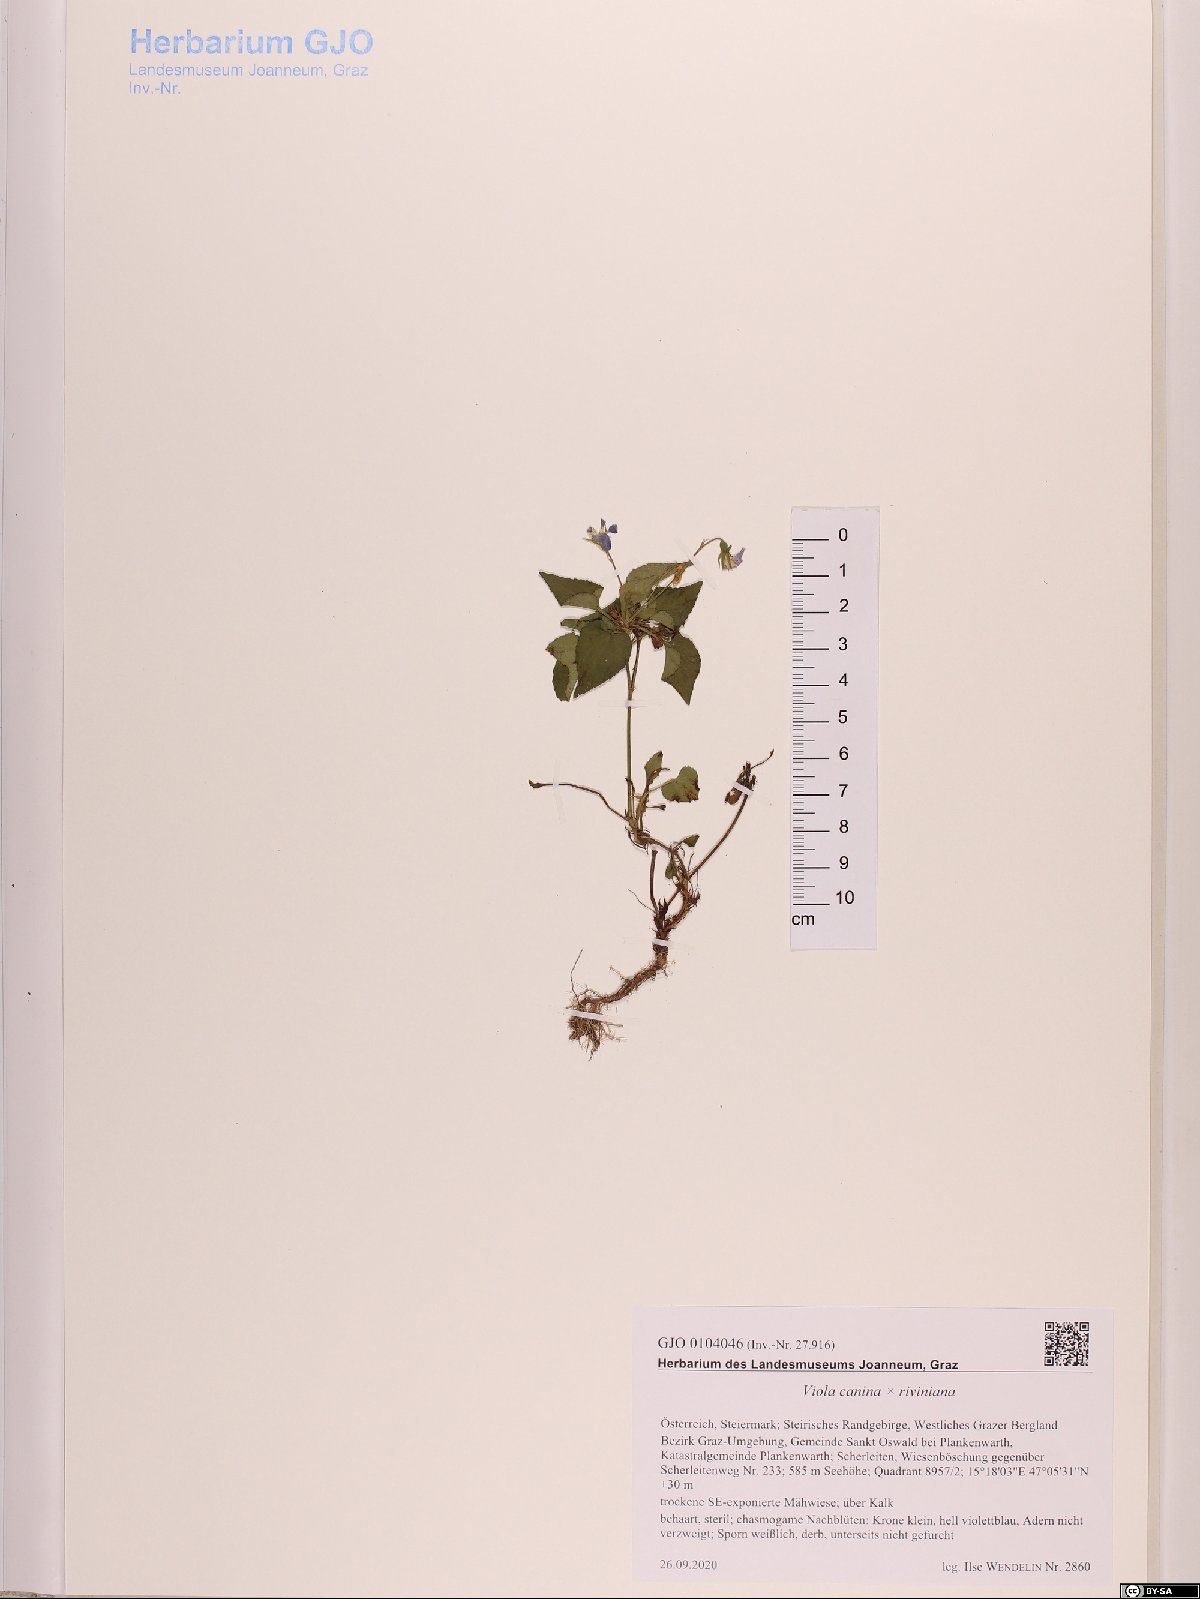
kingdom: Plantae
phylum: Tracheophyta
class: Magnoliopsida
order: Malpighiales
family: Violaceae
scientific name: Violaceae
